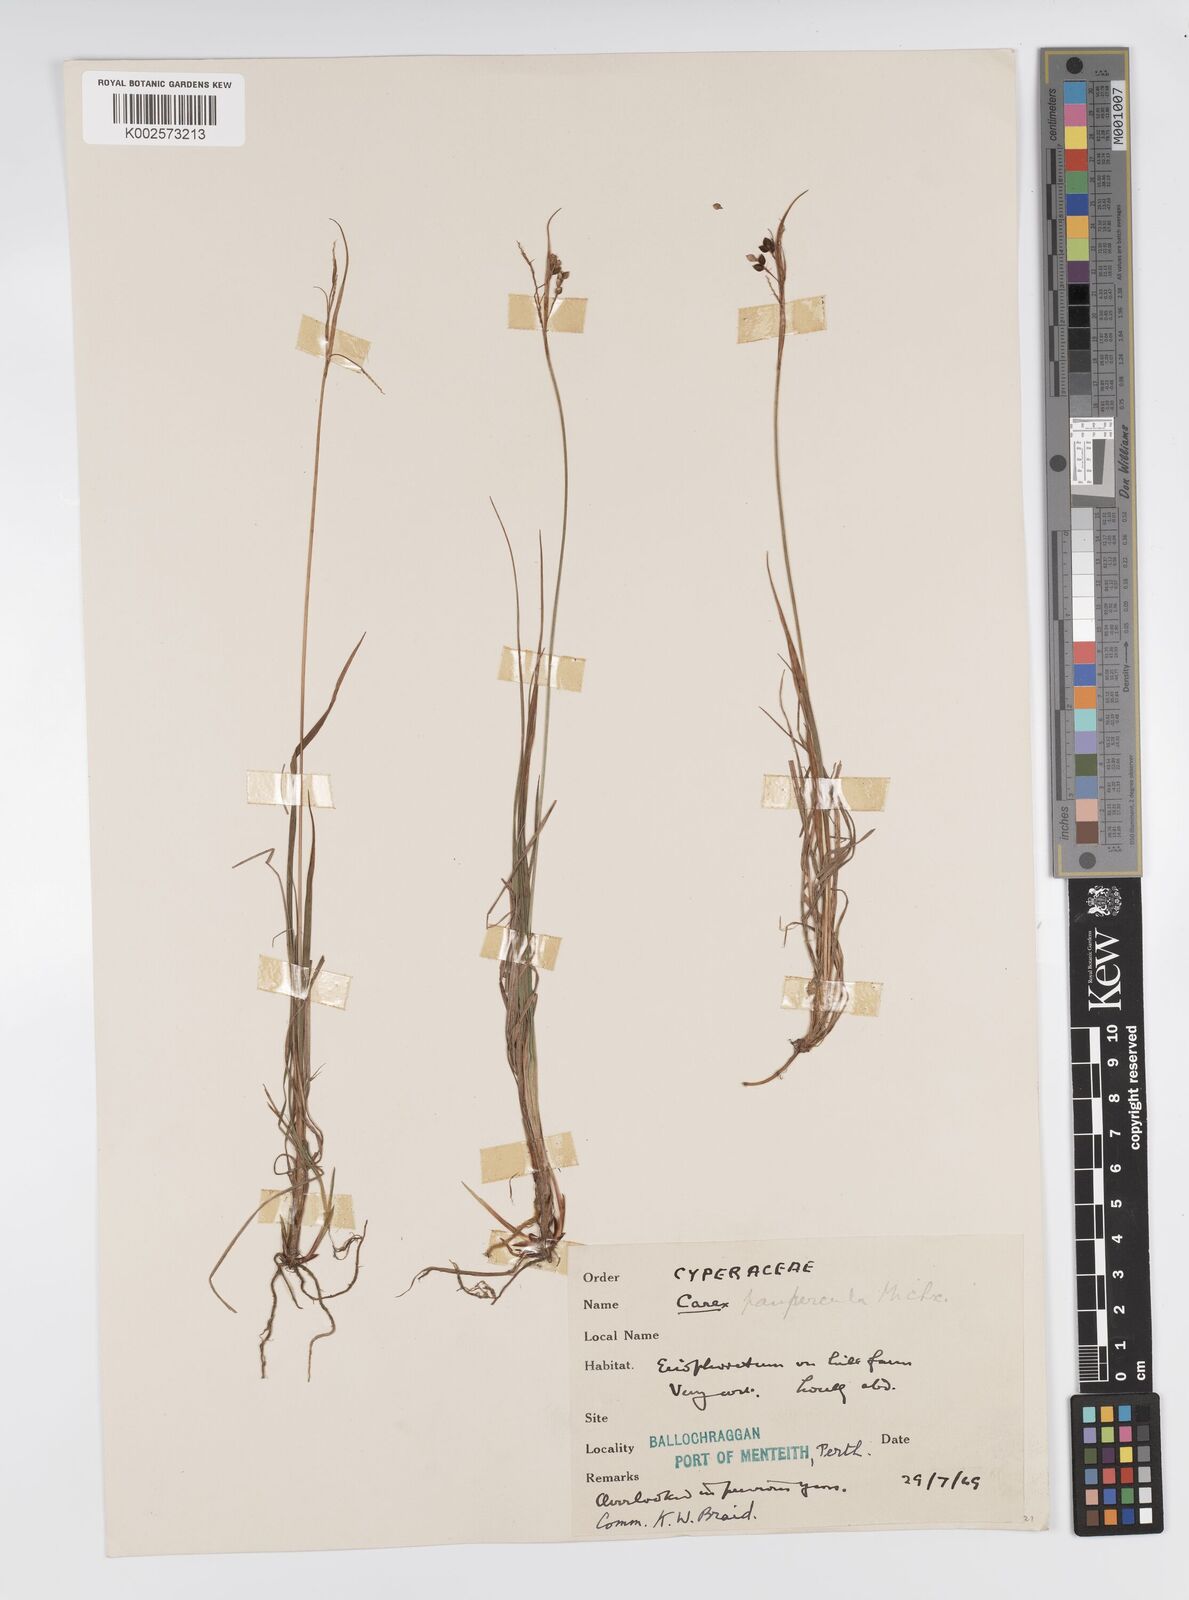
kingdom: Plantae
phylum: Tracheophyta
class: Liliopsida
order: Poales
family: Cyperaceae
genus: Carex
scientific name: Carex magellanica
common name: Bog sedge
